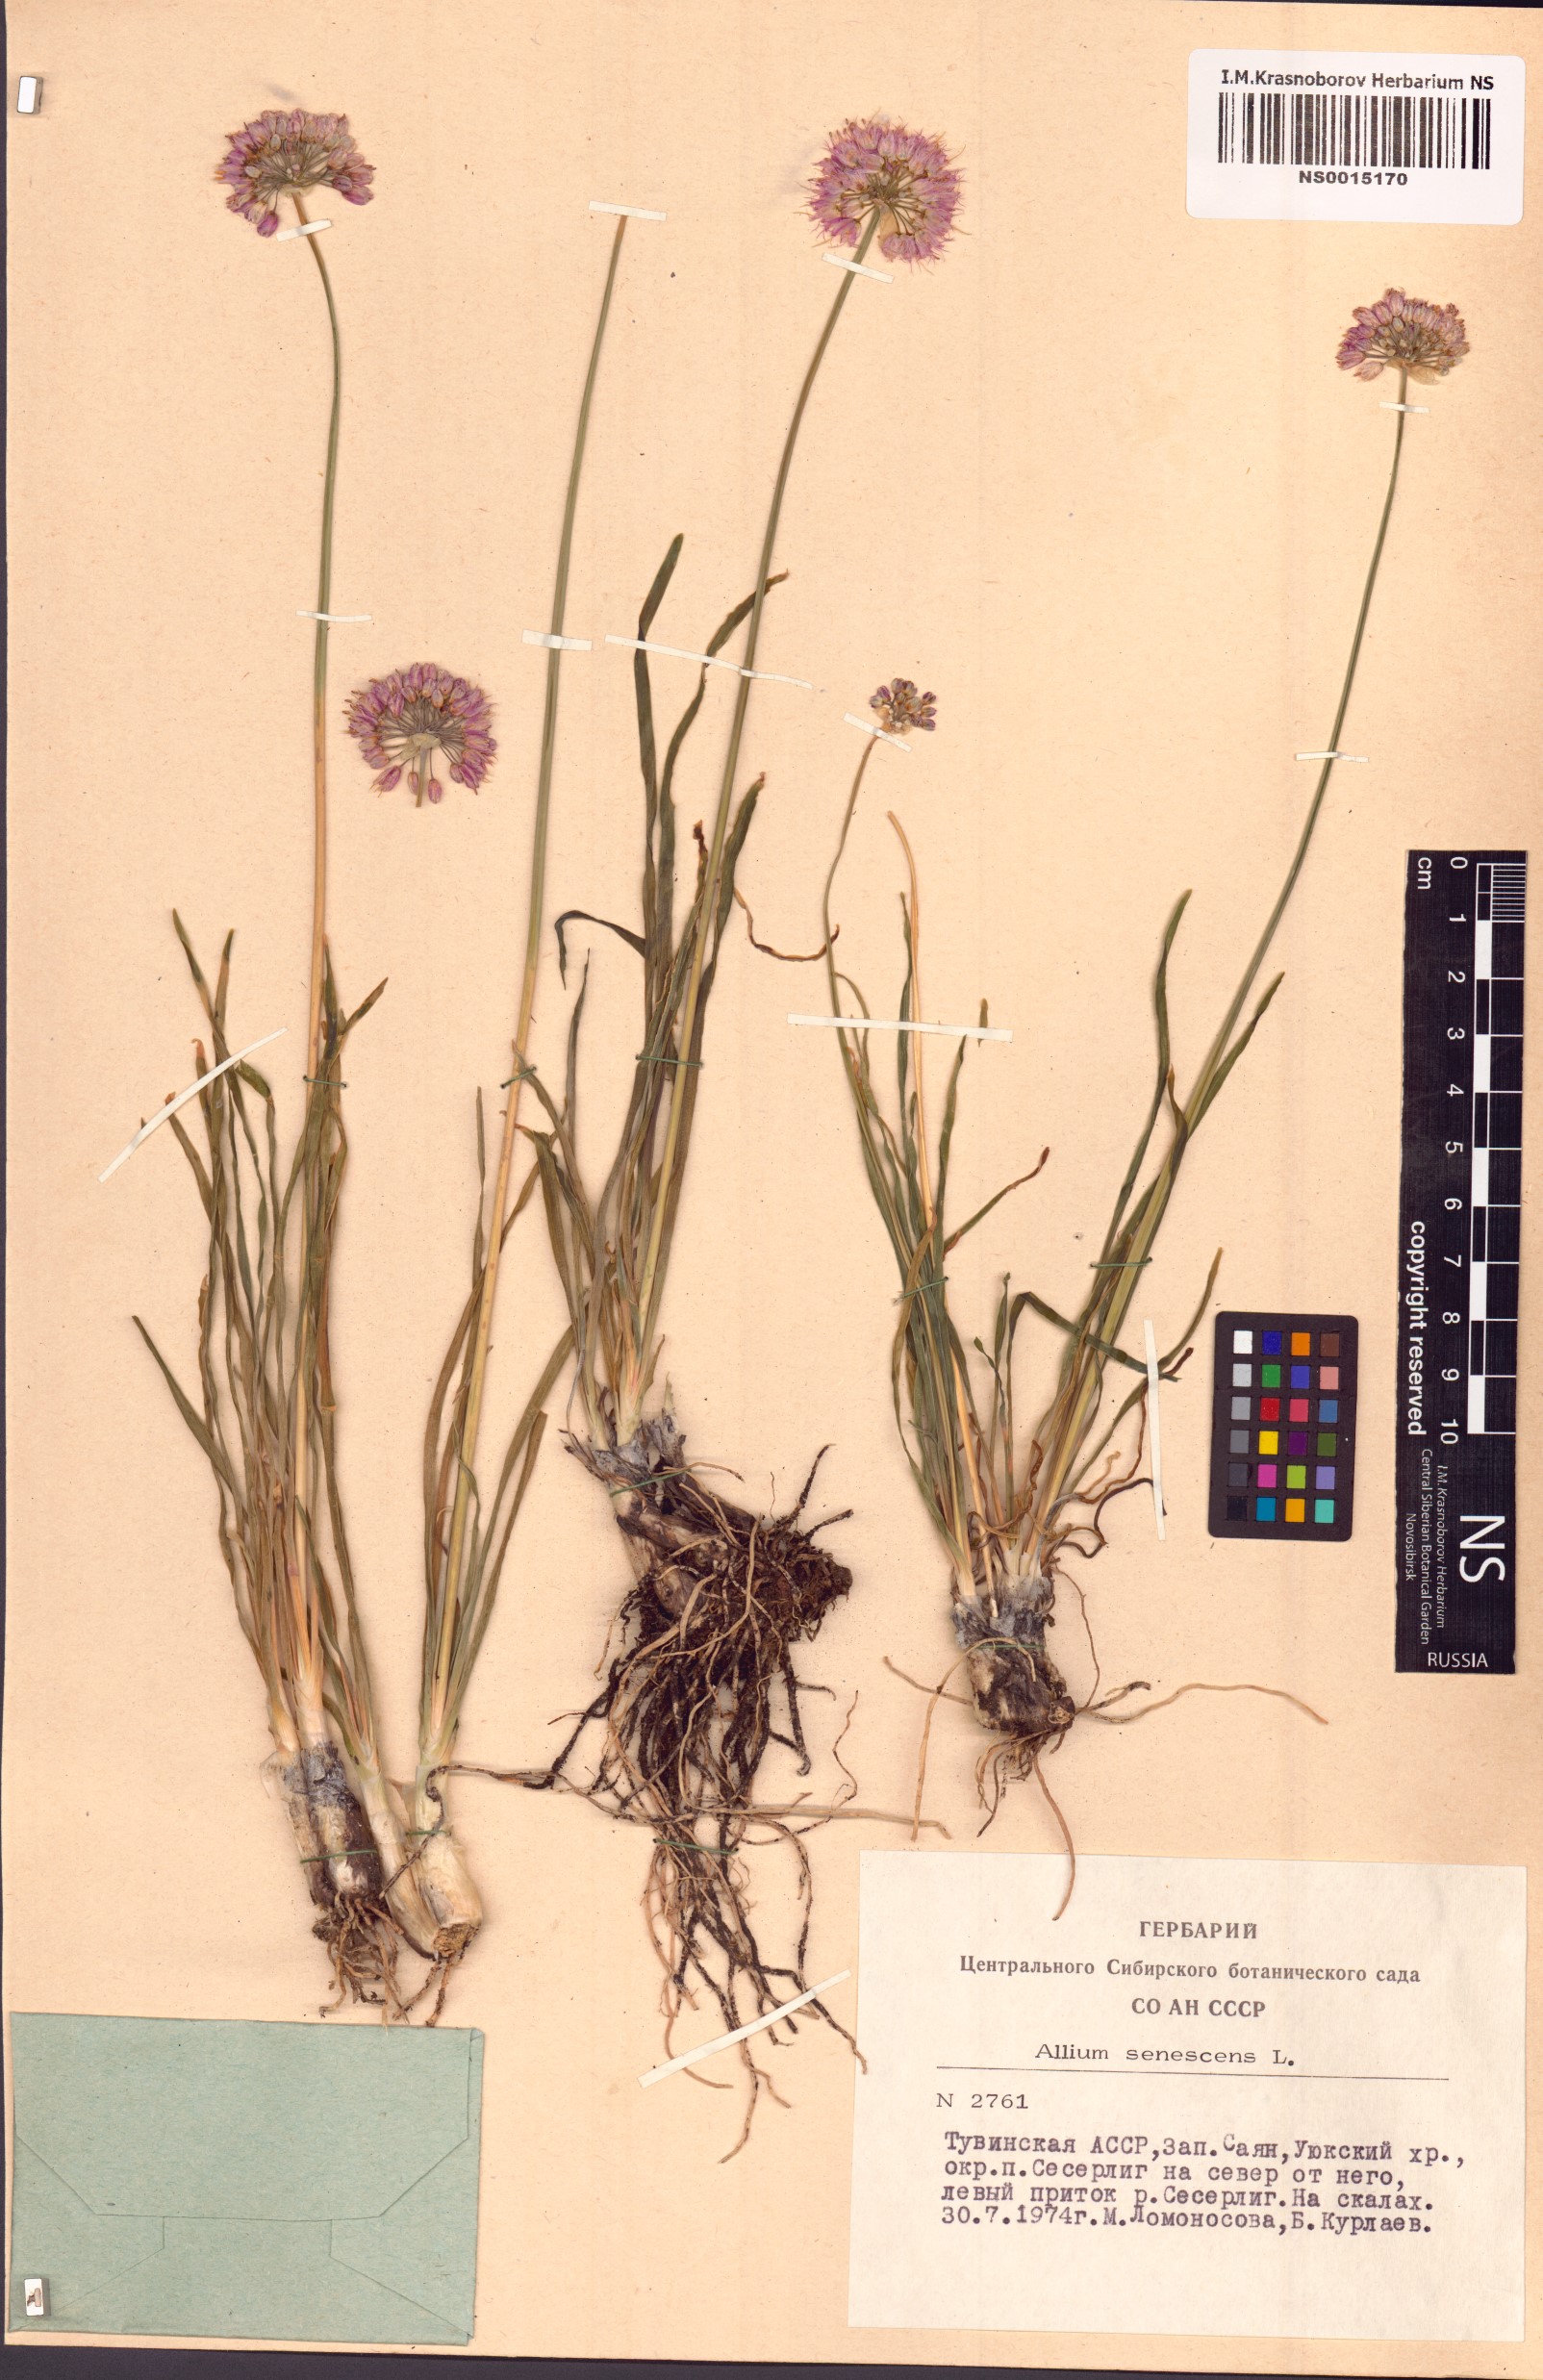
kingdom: Plantae
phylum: Tracheophyta
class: Liliopsida
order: Asparagales
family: Amaryllidaceae
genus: Allium
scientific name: Allium senescens
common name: German garlic
